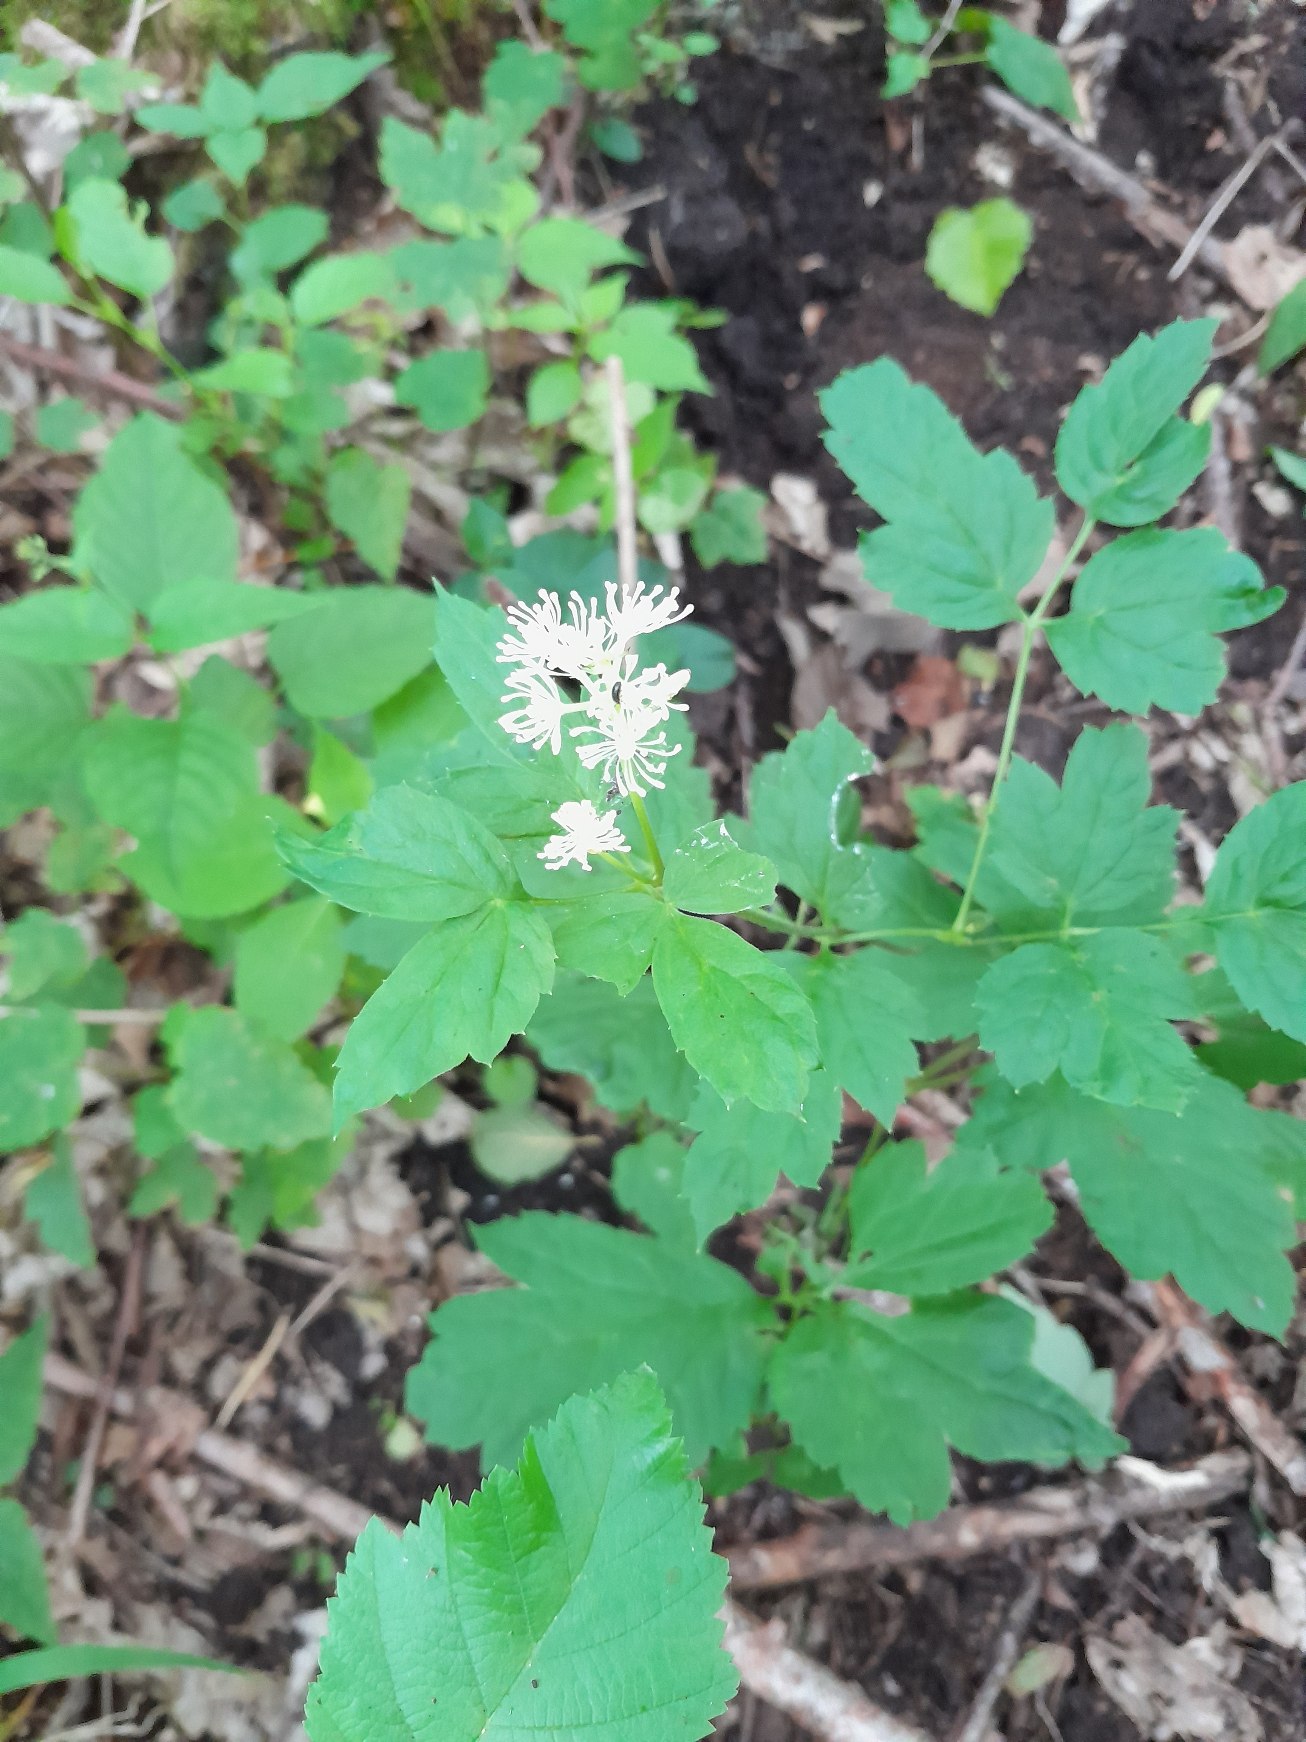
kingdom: Plantae
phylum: Tracheophyta
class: Magnoliopsida
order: Ranunculales
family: Ranunculaceae
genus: Actaea
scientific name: Actaea spicata
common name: Druemunke
